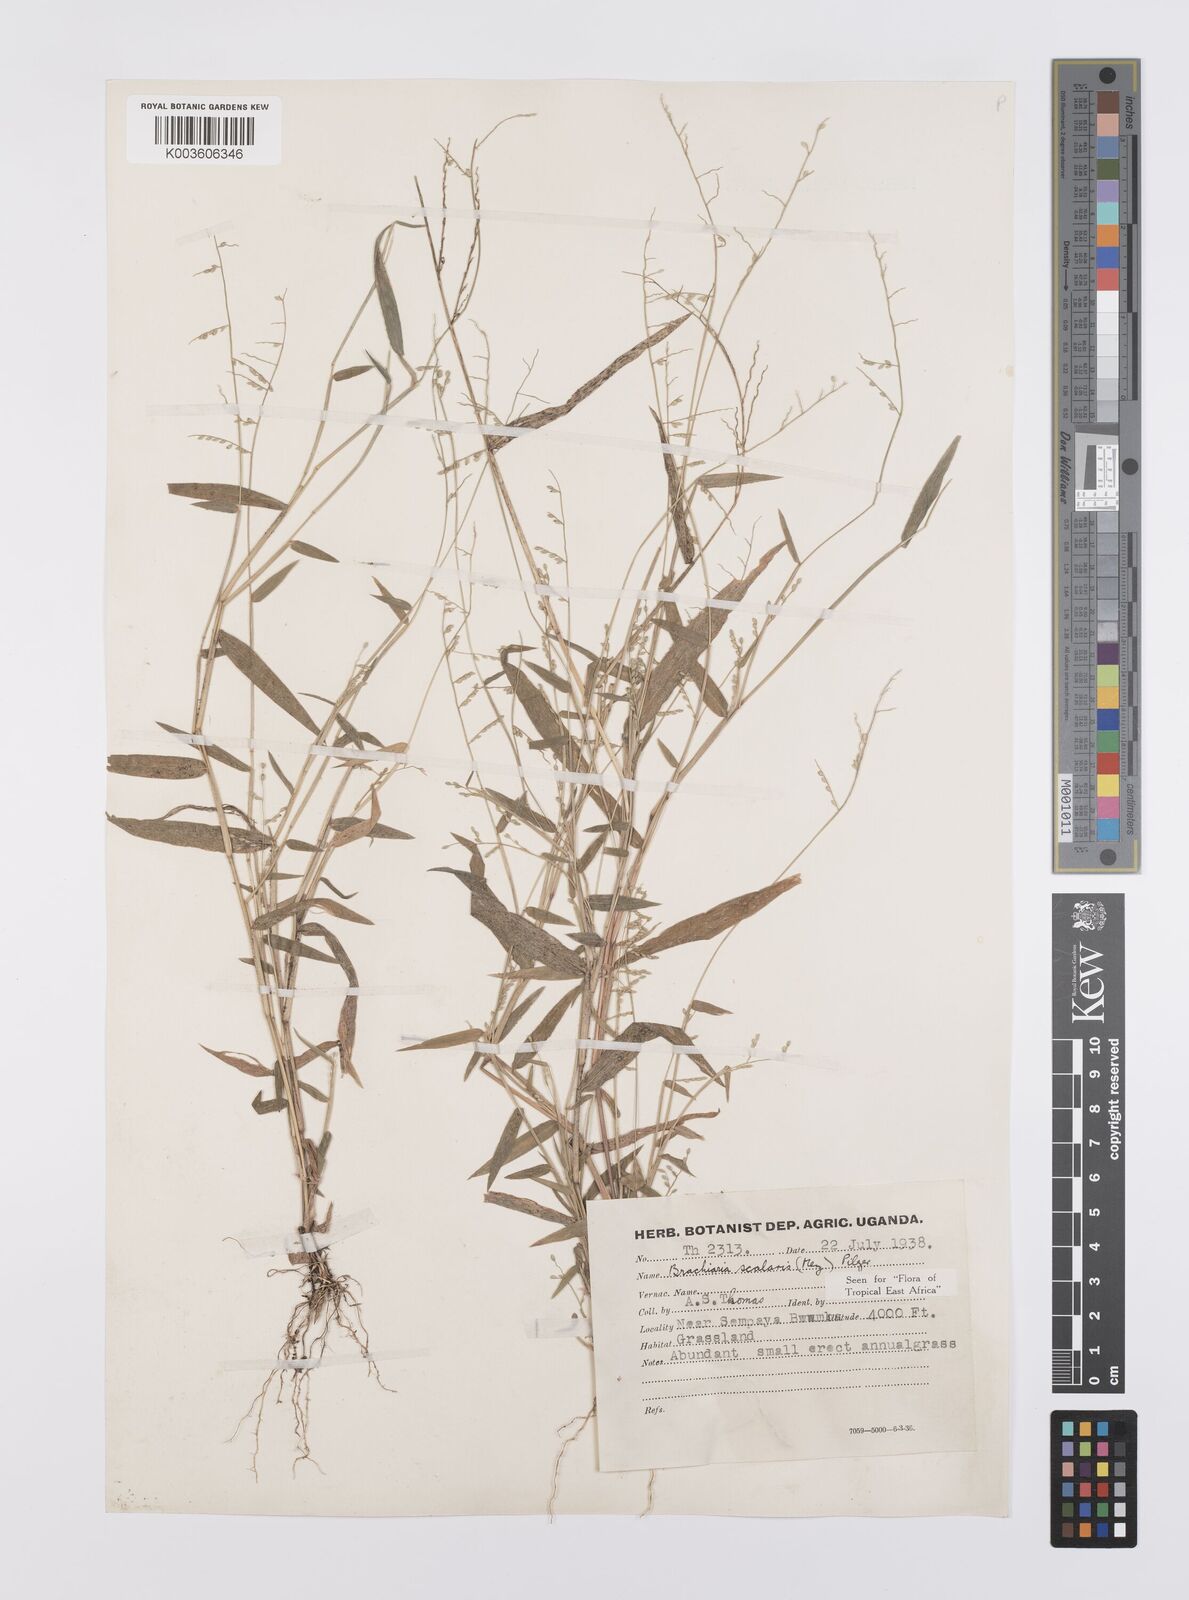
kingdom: Plantae
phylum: Tracheophyta
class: Liliopsida
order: Poales
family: Poaceae
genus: Urochloa
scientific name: Urochloa comata
